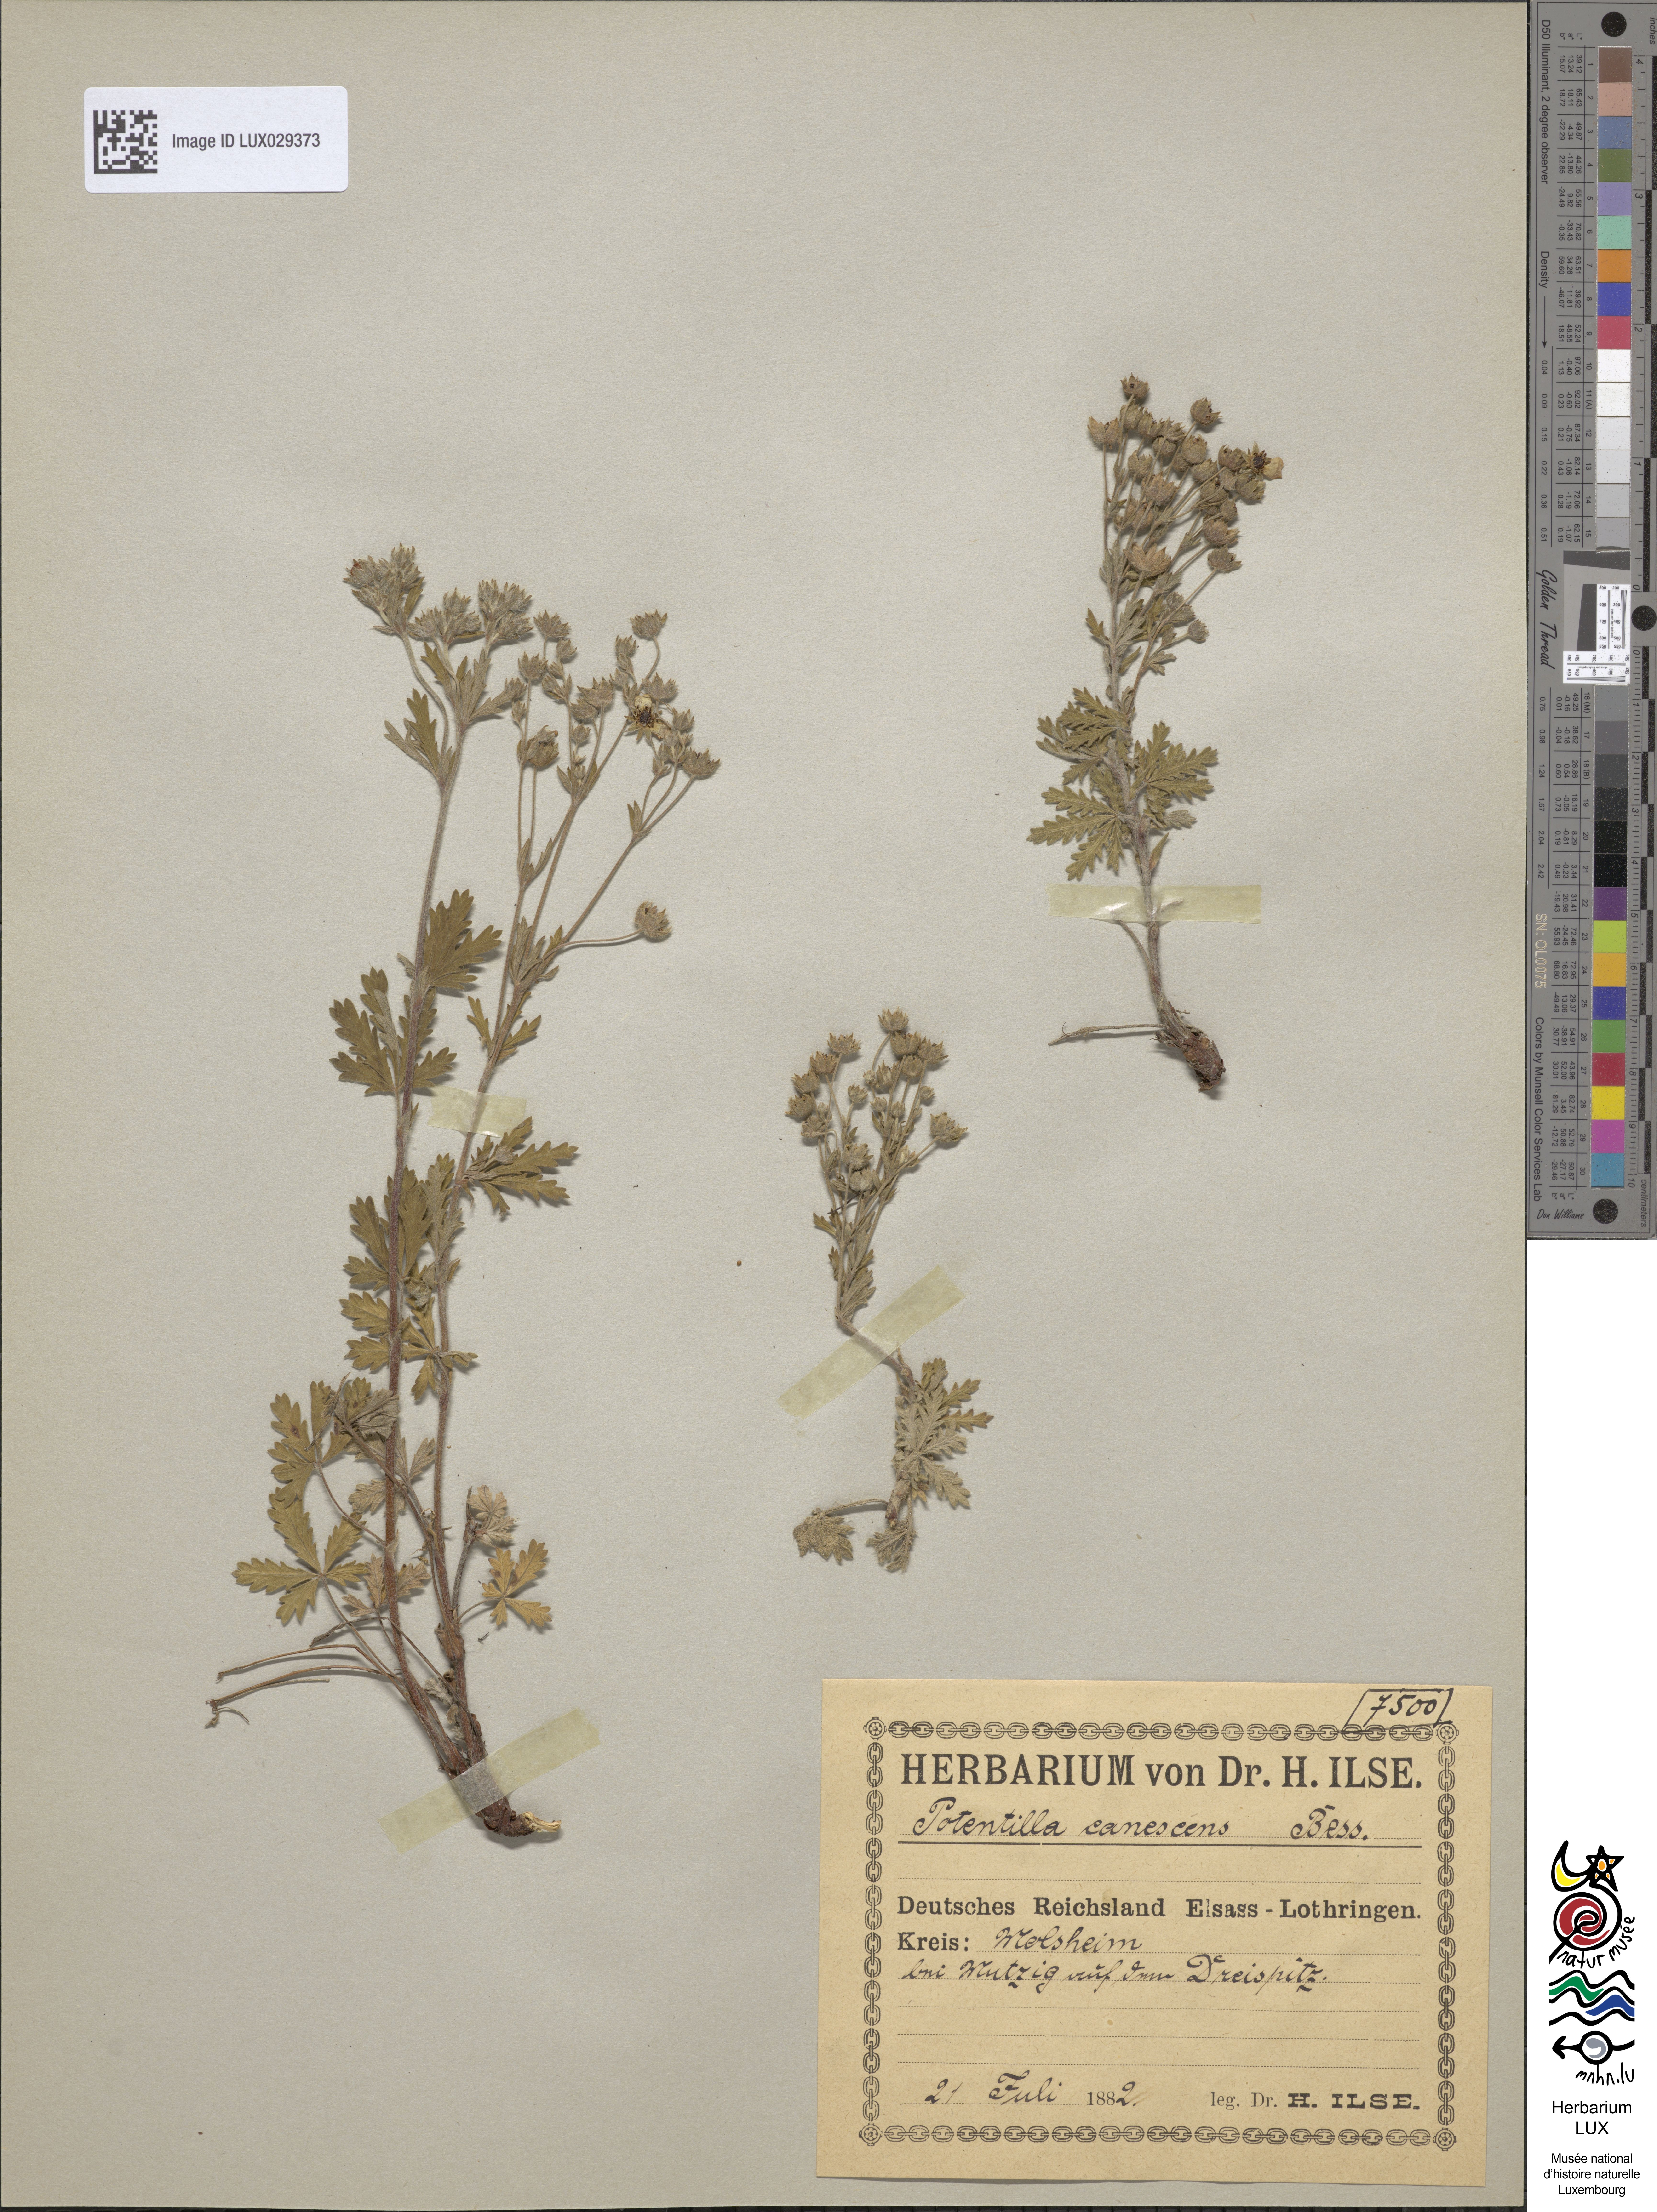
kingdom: Plantae
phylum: Tracheophyta
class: Magnoliopsida
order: Rosales
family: Rosaceae
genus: Potentilla
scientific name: Potentilla inclinata
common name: Grey cinquefoil
